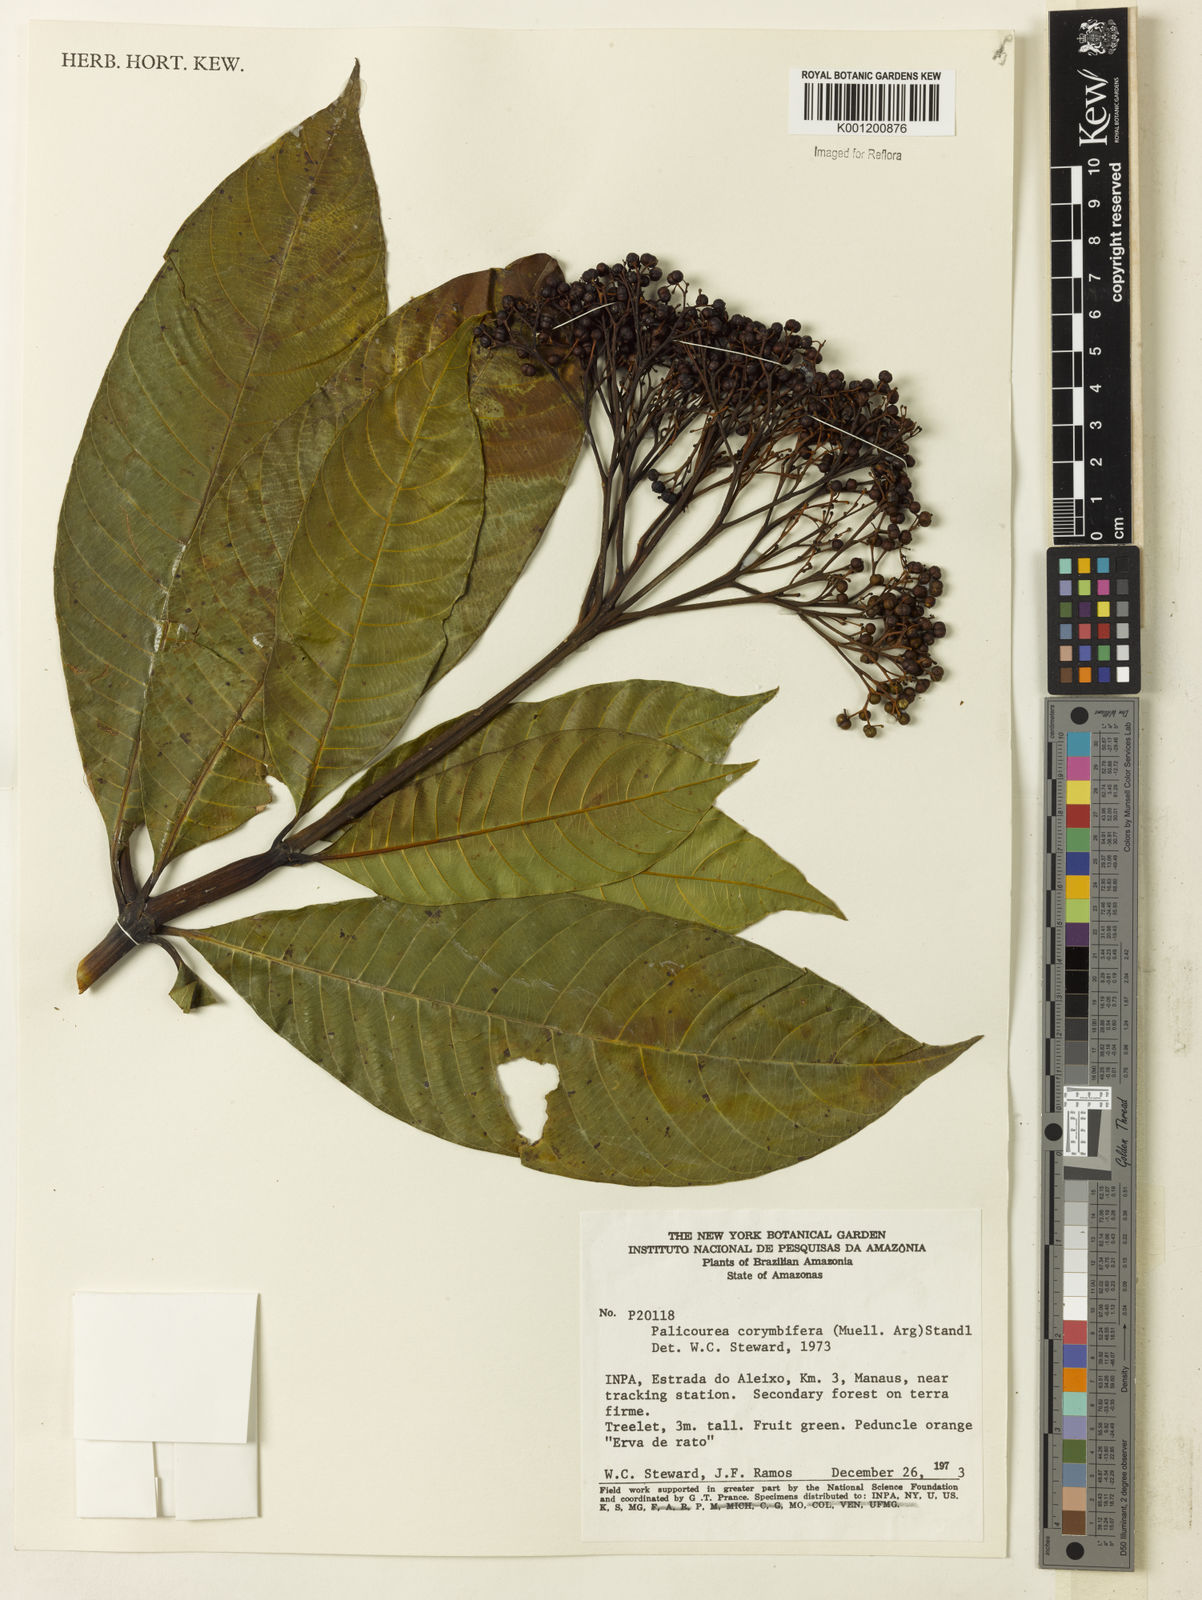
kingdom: Plantae
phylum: Tracheophyta
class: Magnoliopsida
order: Gentianales
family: Rubiaceae
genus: Palicourea
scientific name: Palicourea
